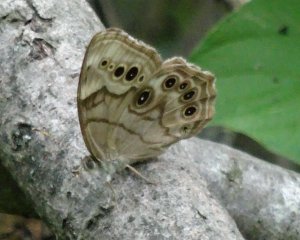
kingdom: Animalia
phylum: Arthropoda
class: Insecta
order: Lepidoptera
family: Nymphalidae
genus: Lethe
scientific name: Lethe anthedon
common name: Northern Pearly-Eye
